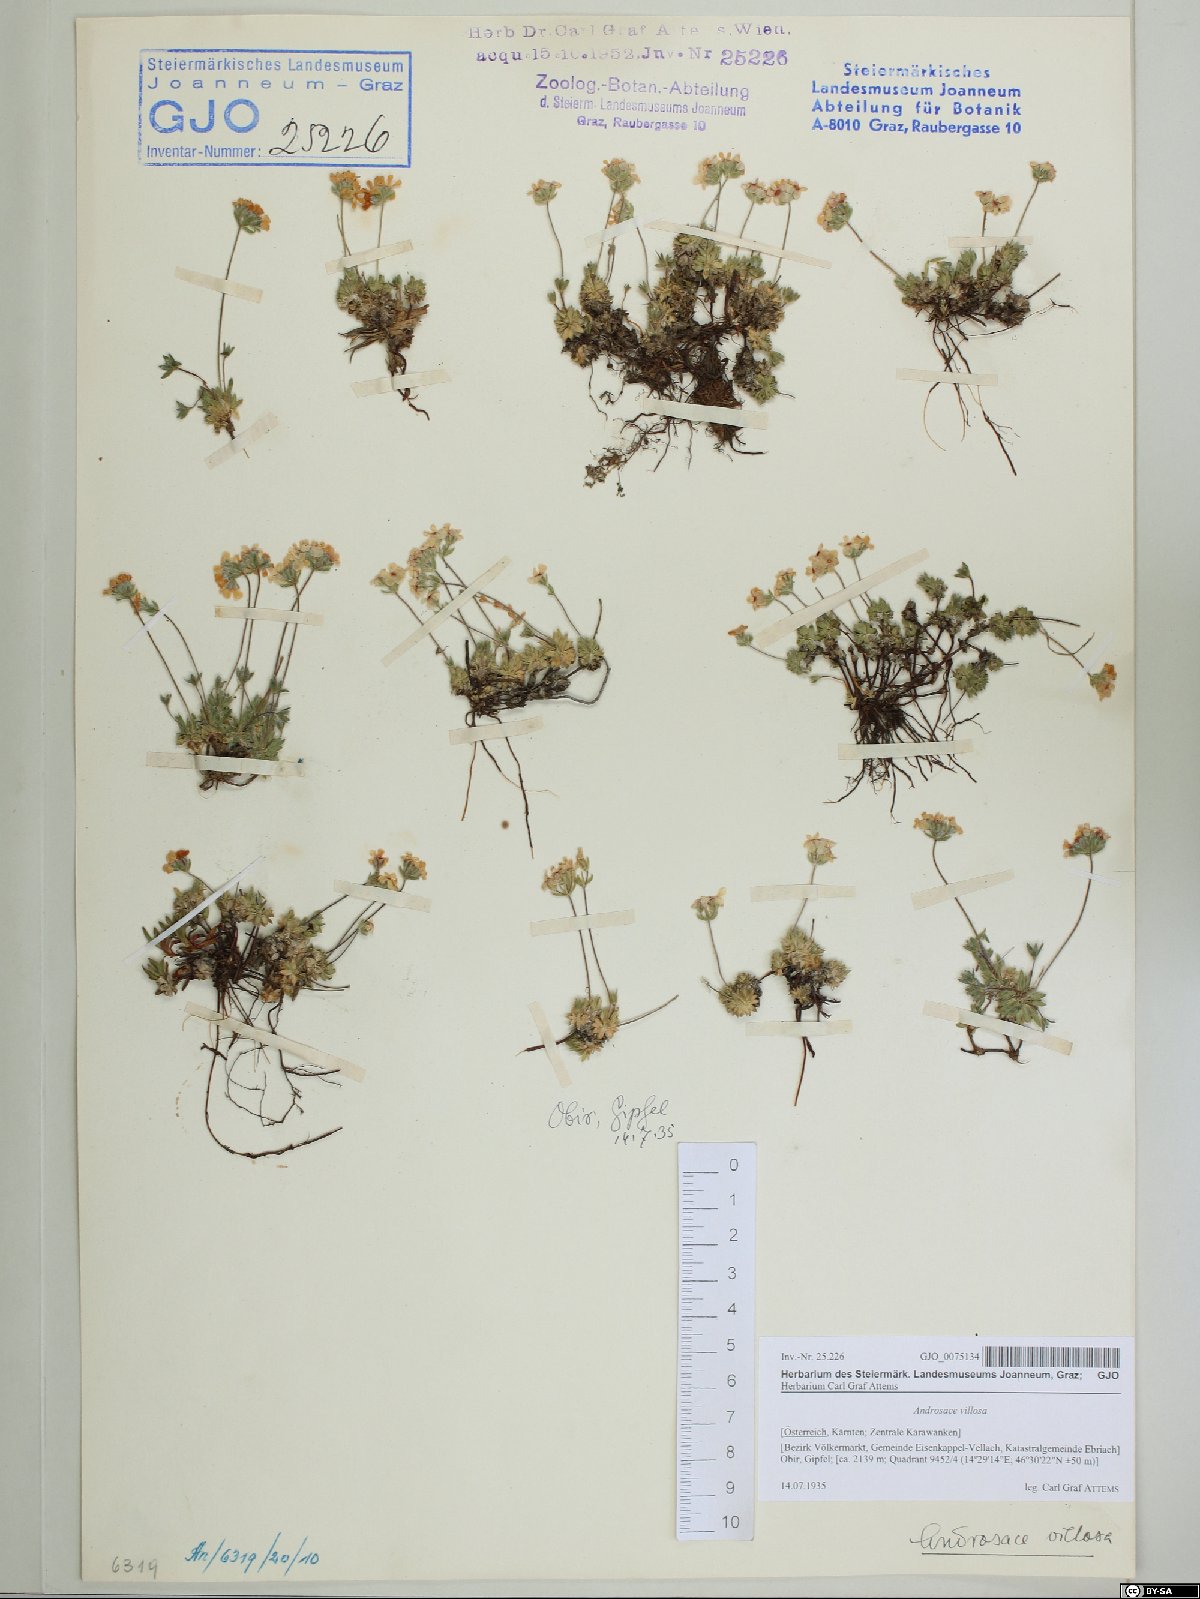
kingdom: Plantae
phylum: Tracheophyta
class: Magnoliopsida
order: Ericales
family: Primulaceae
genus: Androsace
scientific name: Androsace villosa
